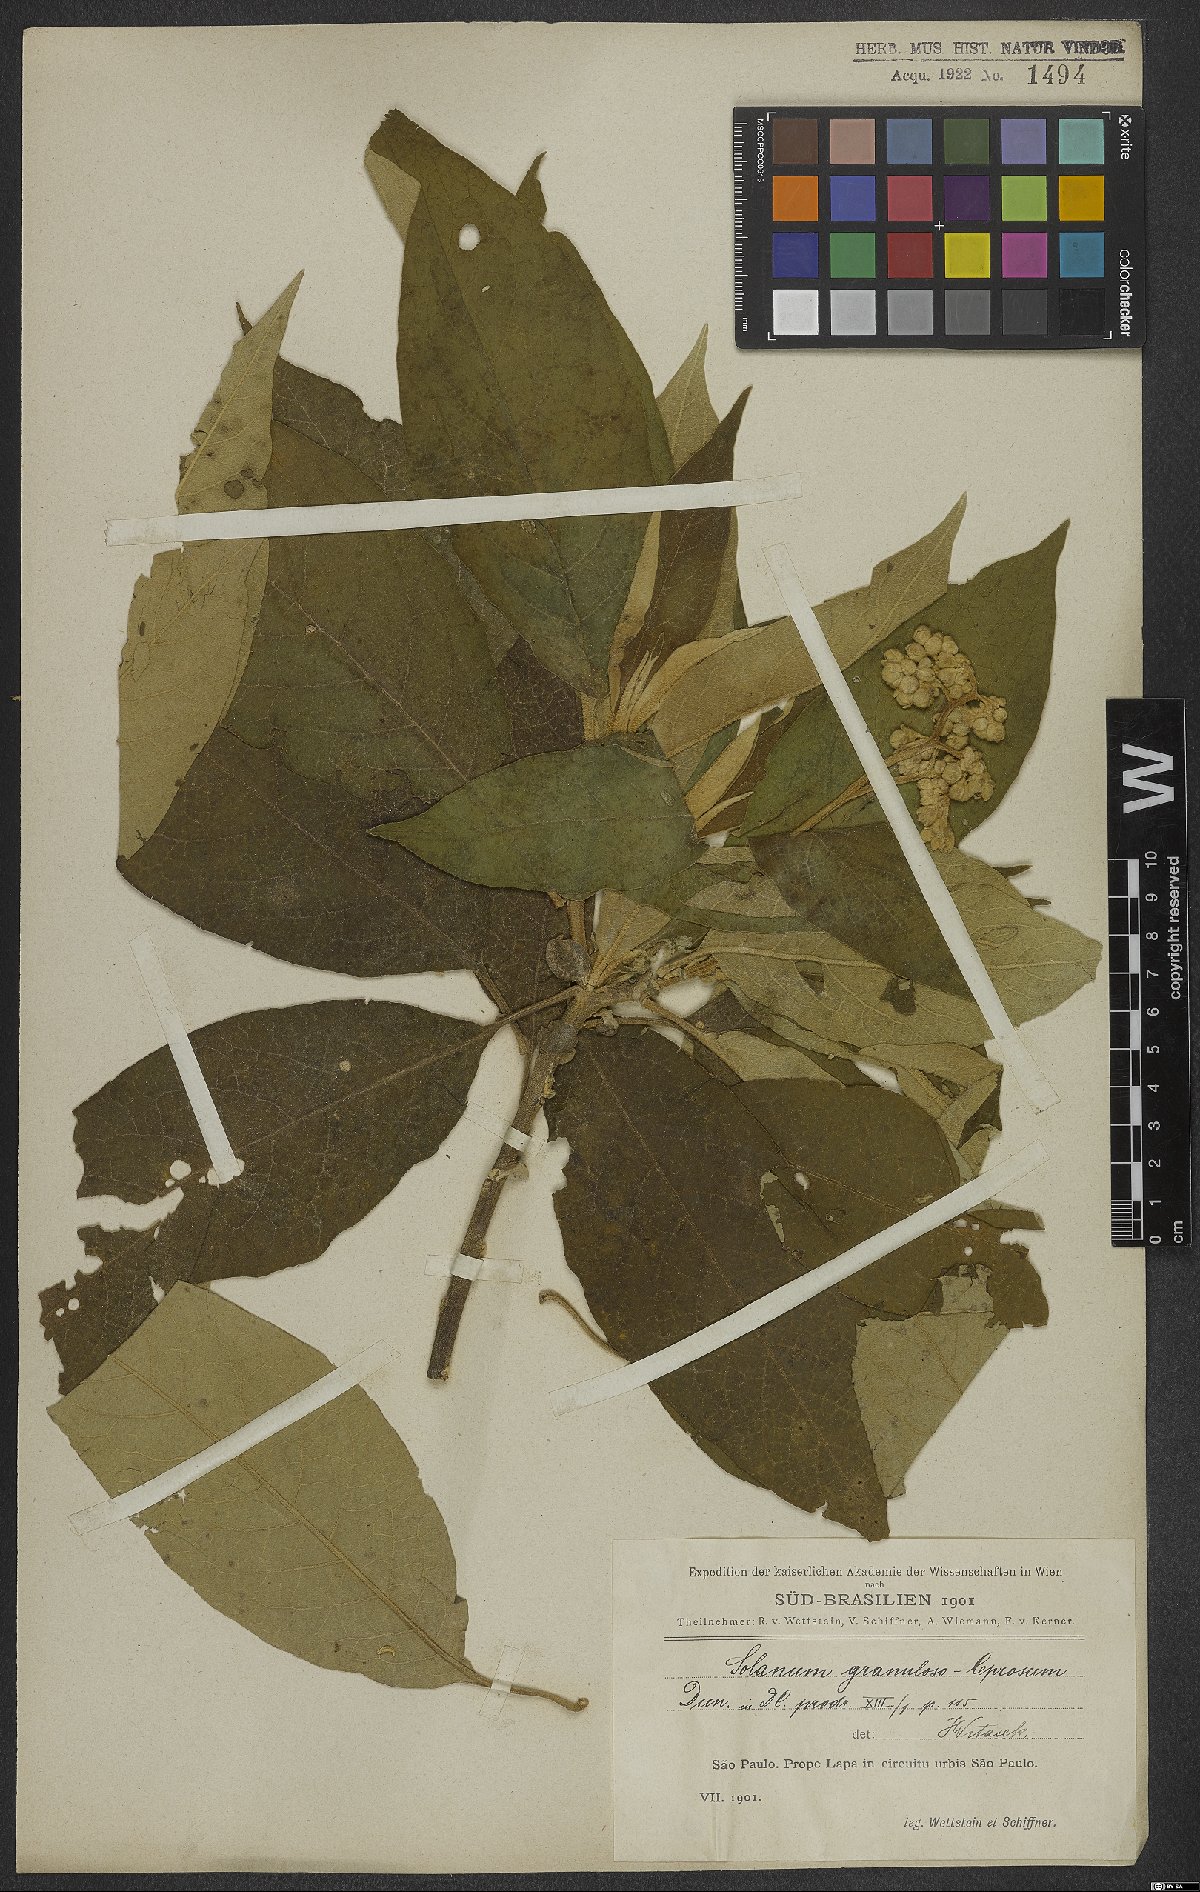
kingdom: Plantae
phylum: Tracheophyta
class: Magnoliopsida
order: Solanales
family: Solanaceae
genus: Solanum
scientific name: Solanum granulosoleprosum
